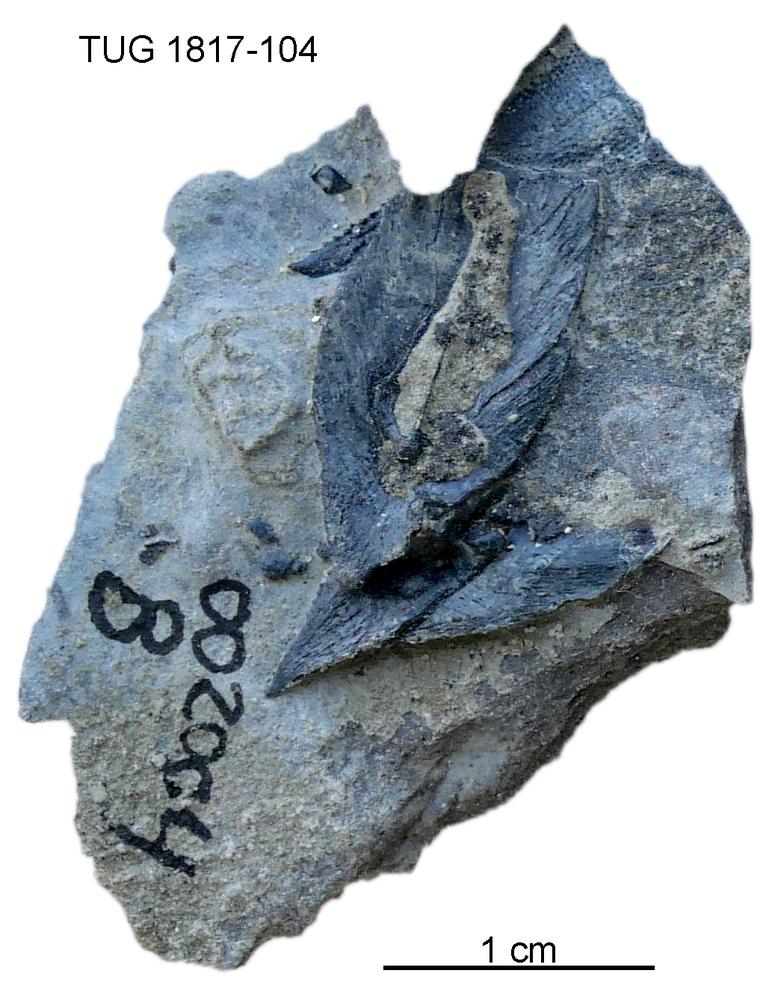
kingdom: Animalia
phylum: Chordata
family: Coccosteidae
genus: Millerosteus
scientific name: Millerosteus minor
